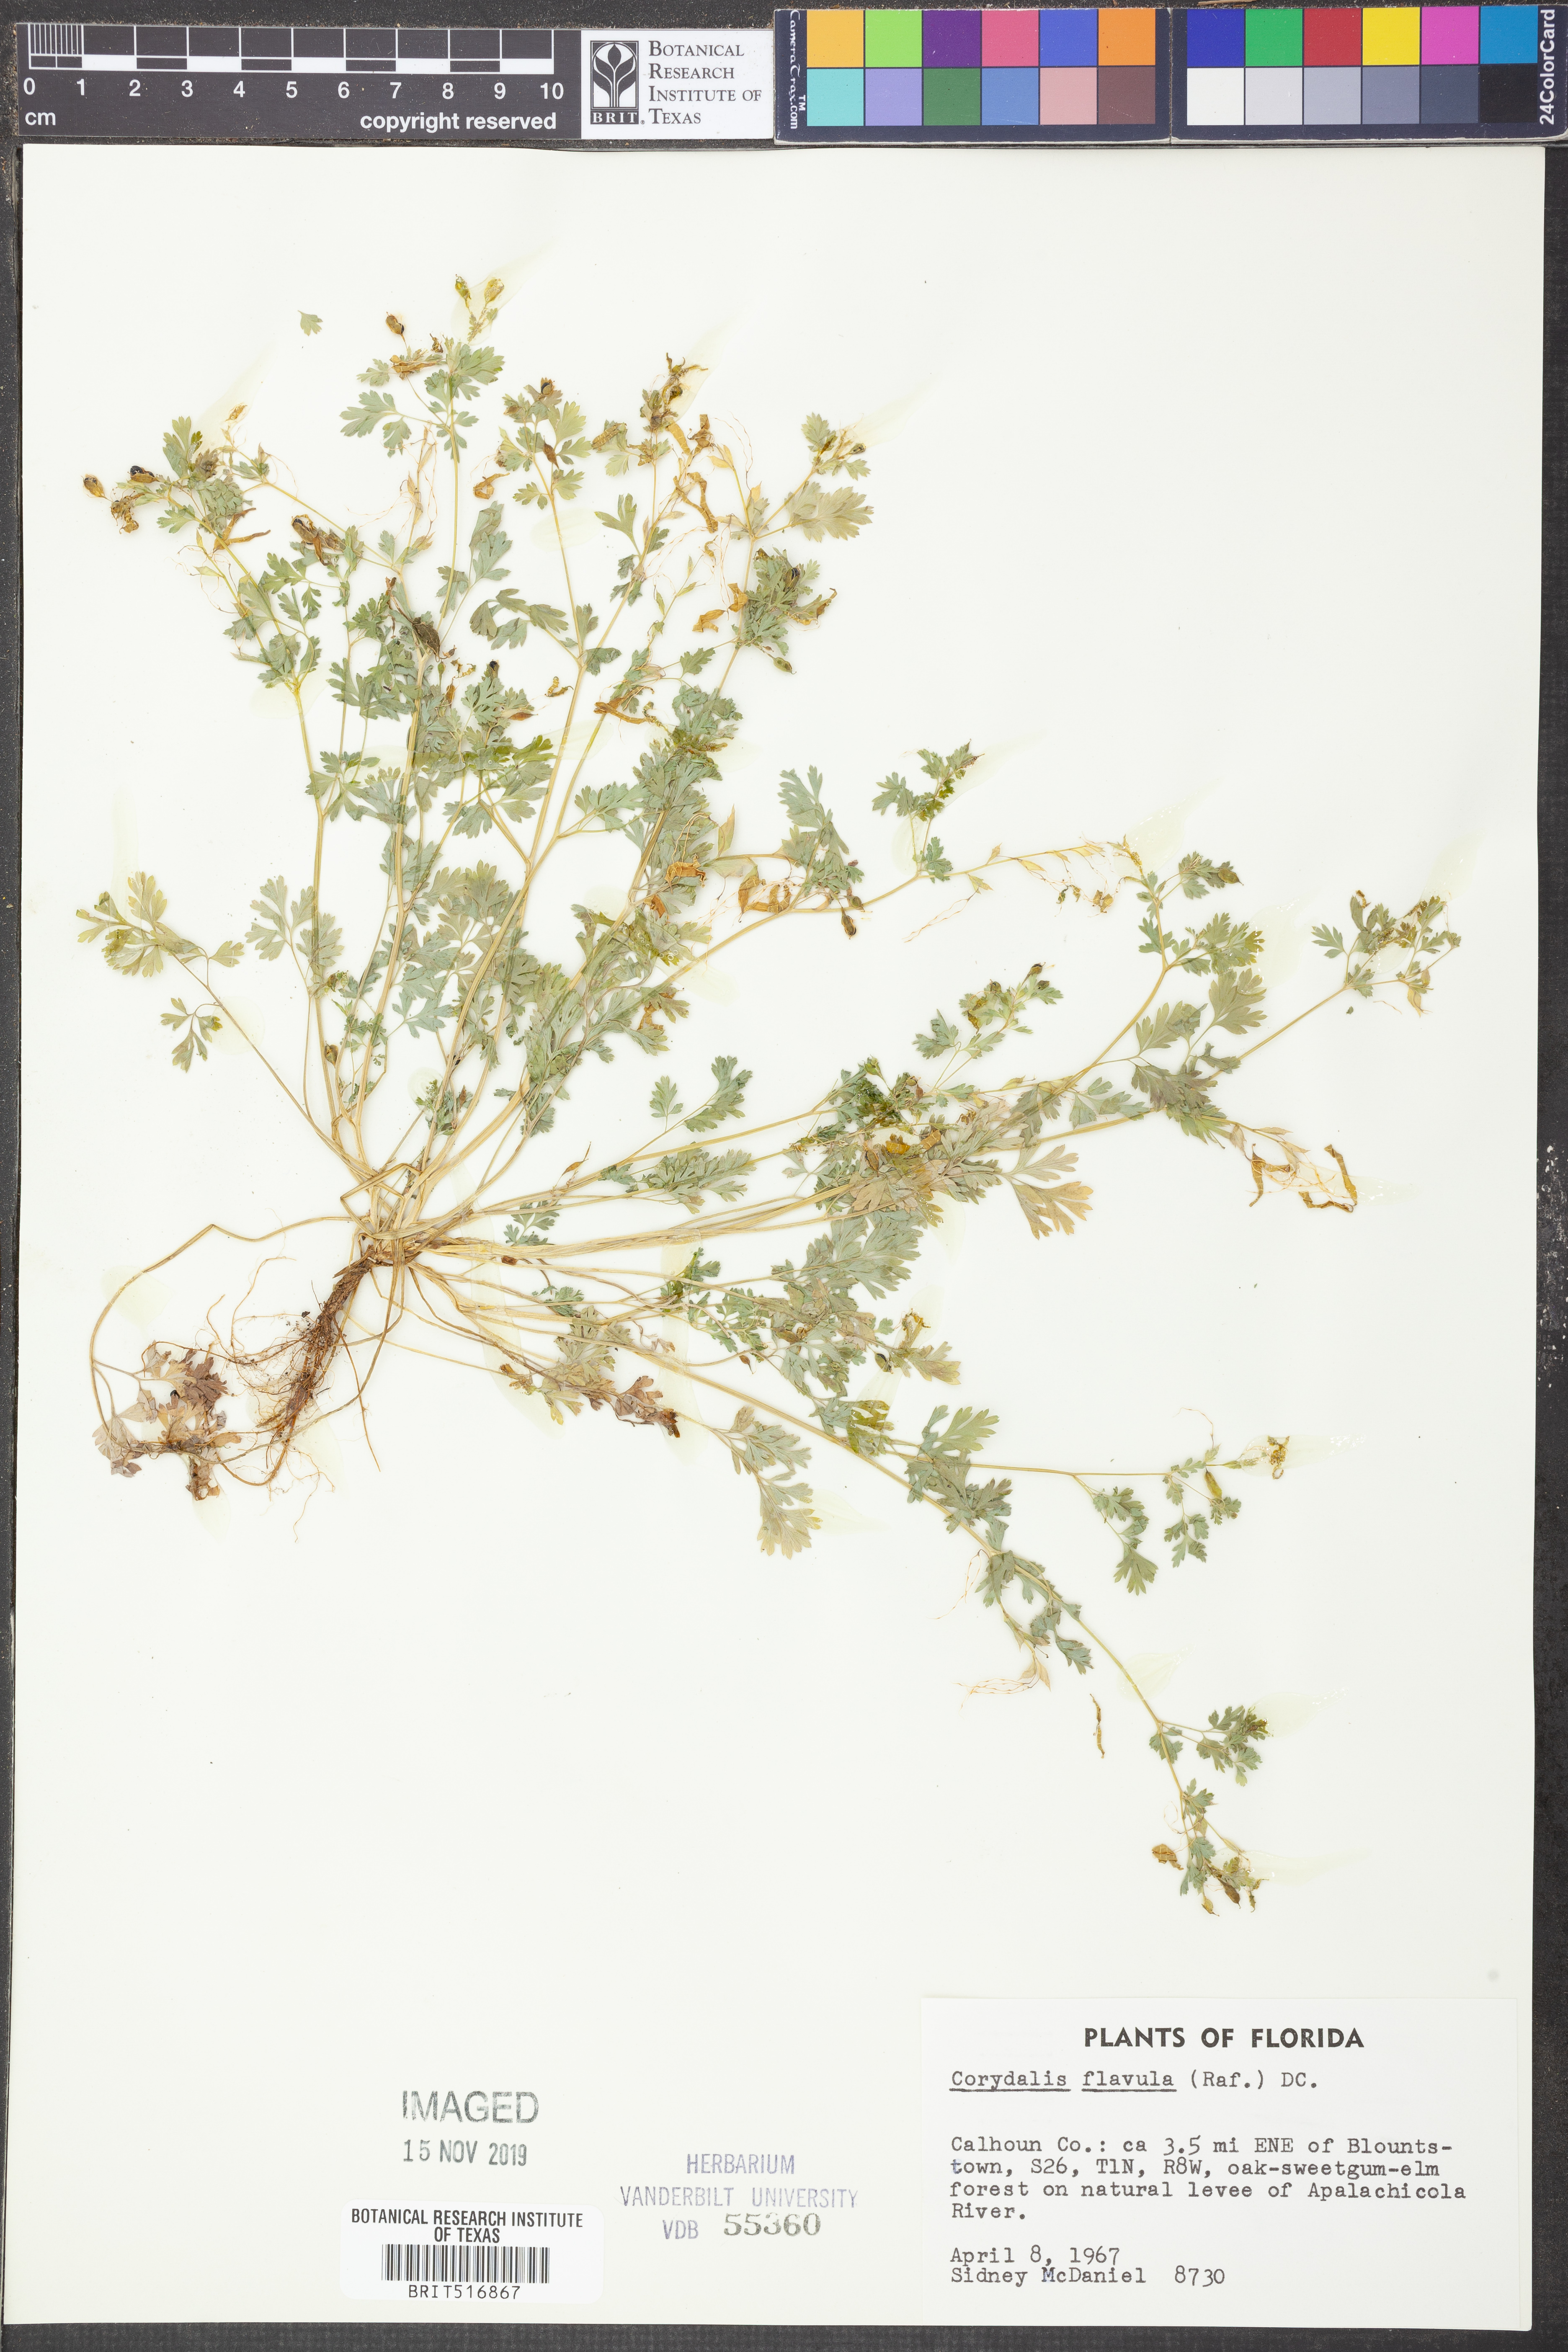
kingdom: Plantae
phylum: Tracheophyta
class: Magnoliopsida
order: Ranunculales
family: Papaveraceae
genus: Corydalis
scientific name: Corydalis flavula
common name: Yellow corydalis
